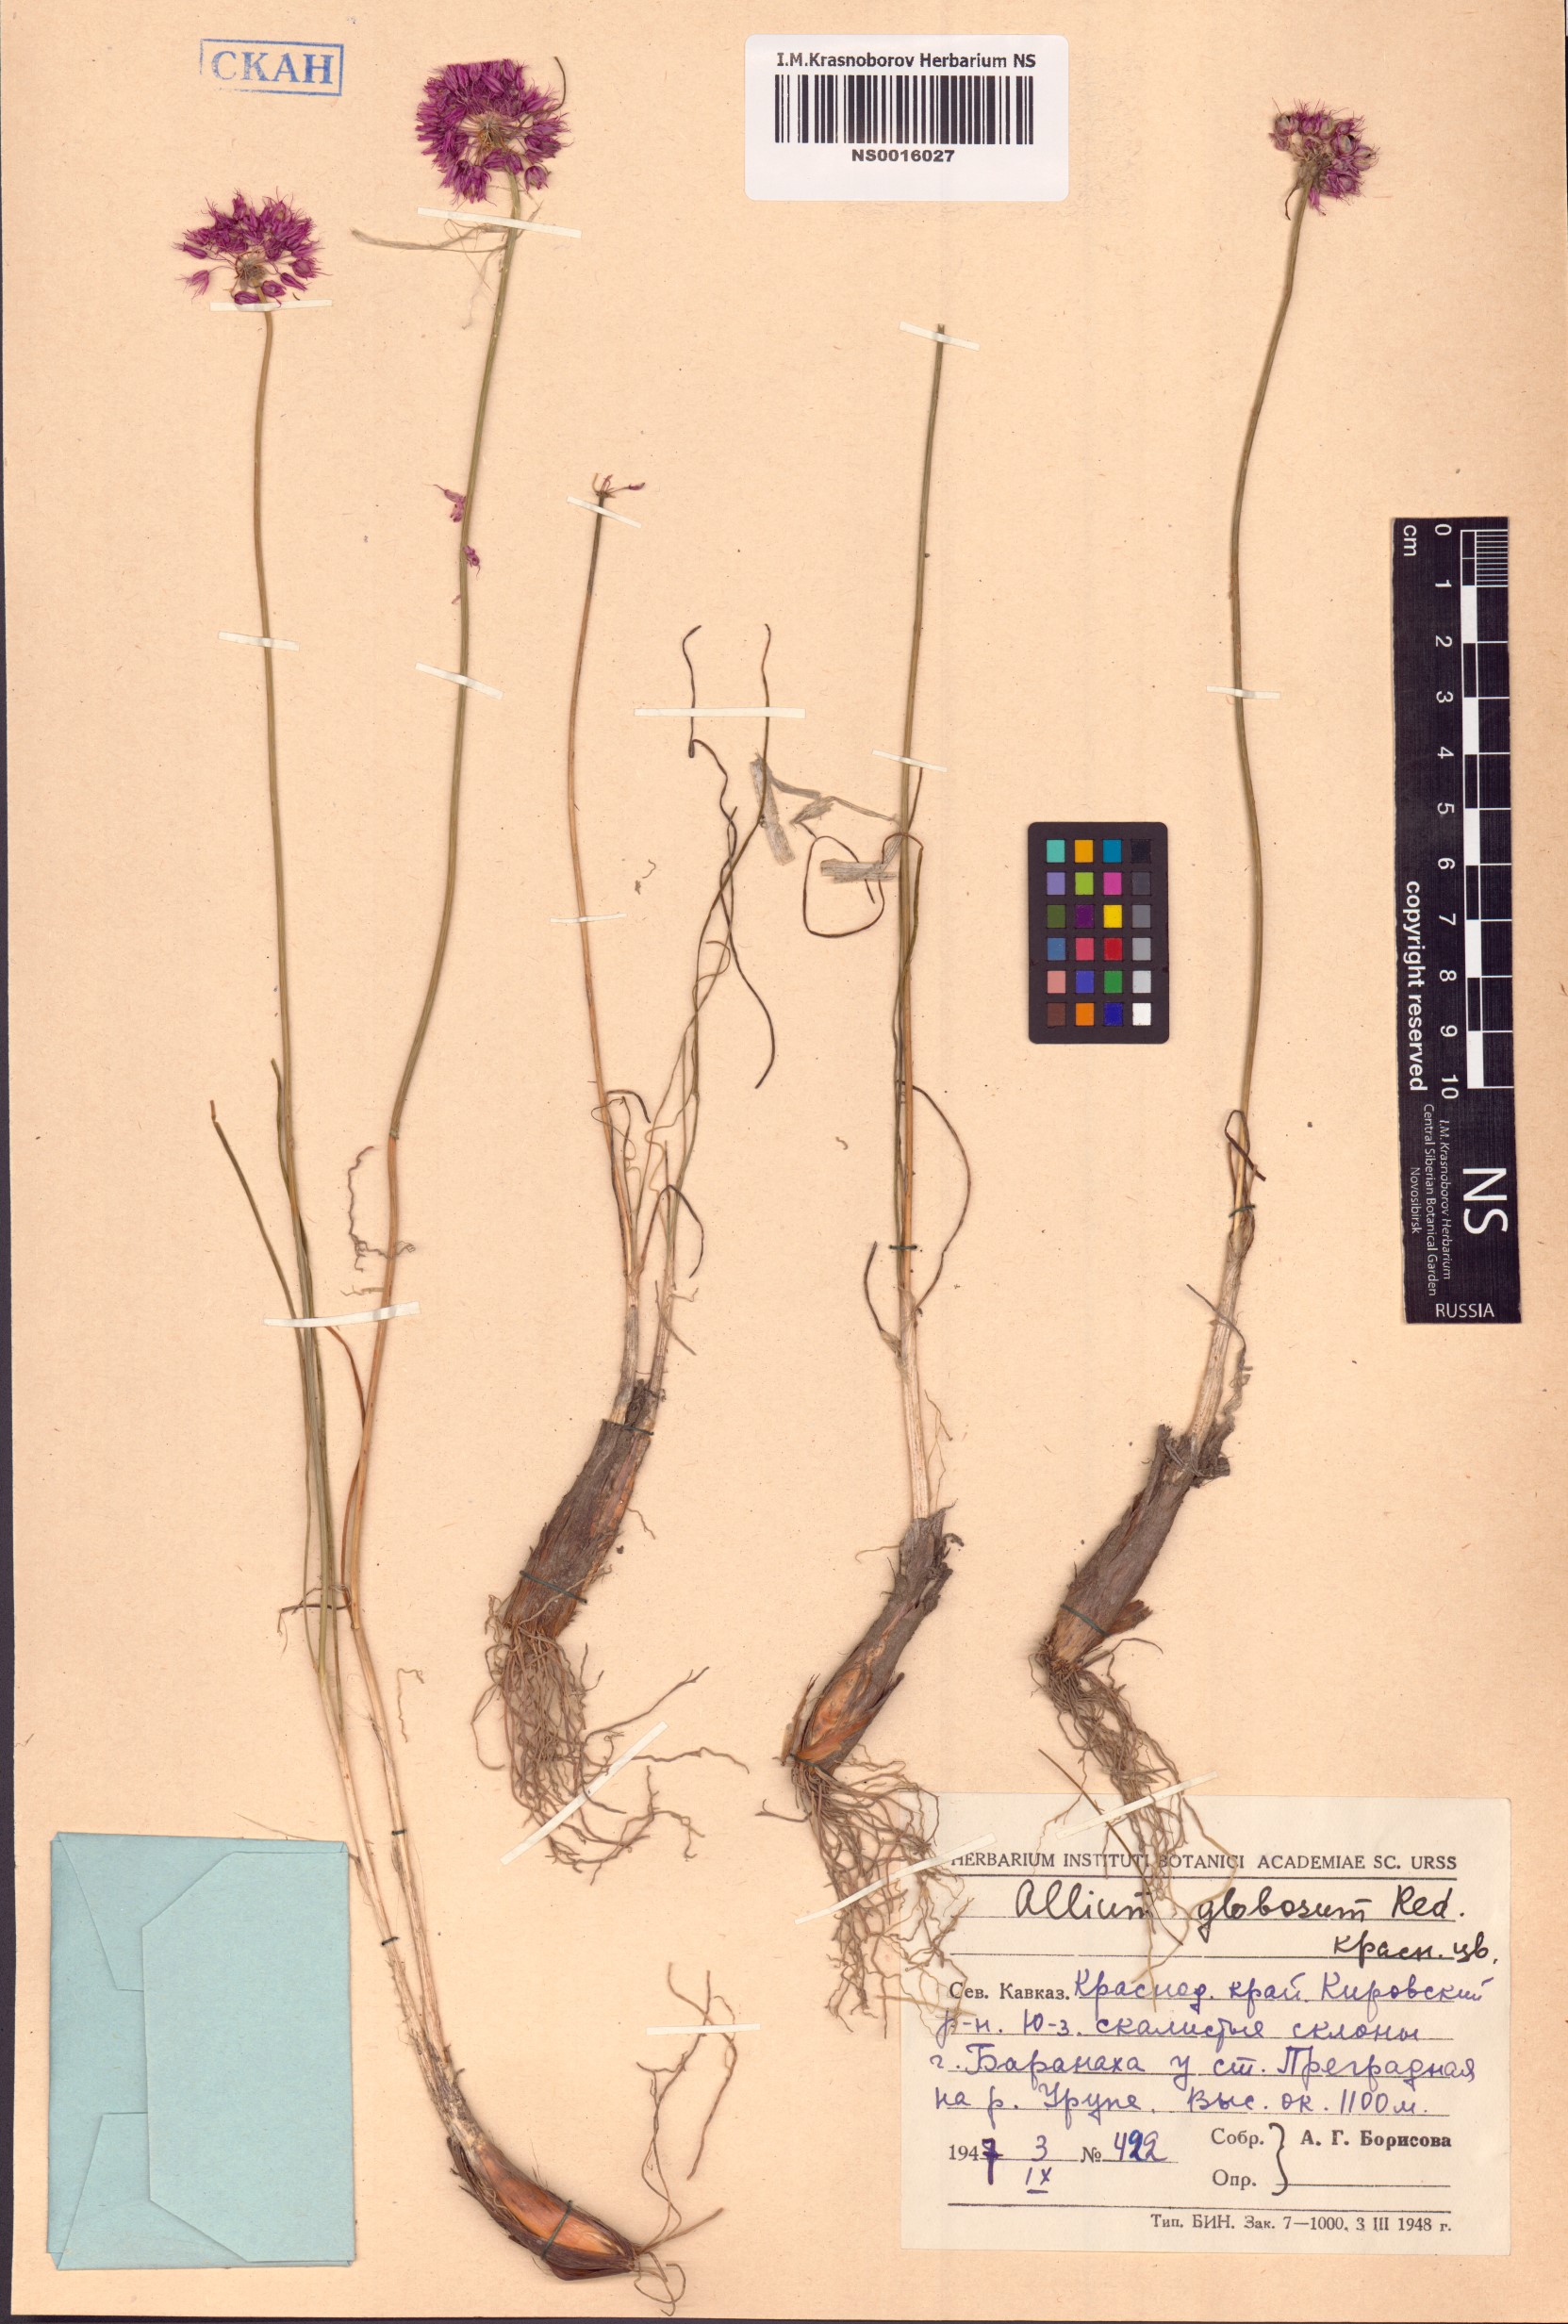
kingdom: Plantae
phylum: Tracheophyta
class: Liliopsida
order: Asparagales
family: Amaryllidaceae
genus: Allium
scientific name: Allium saxatile
